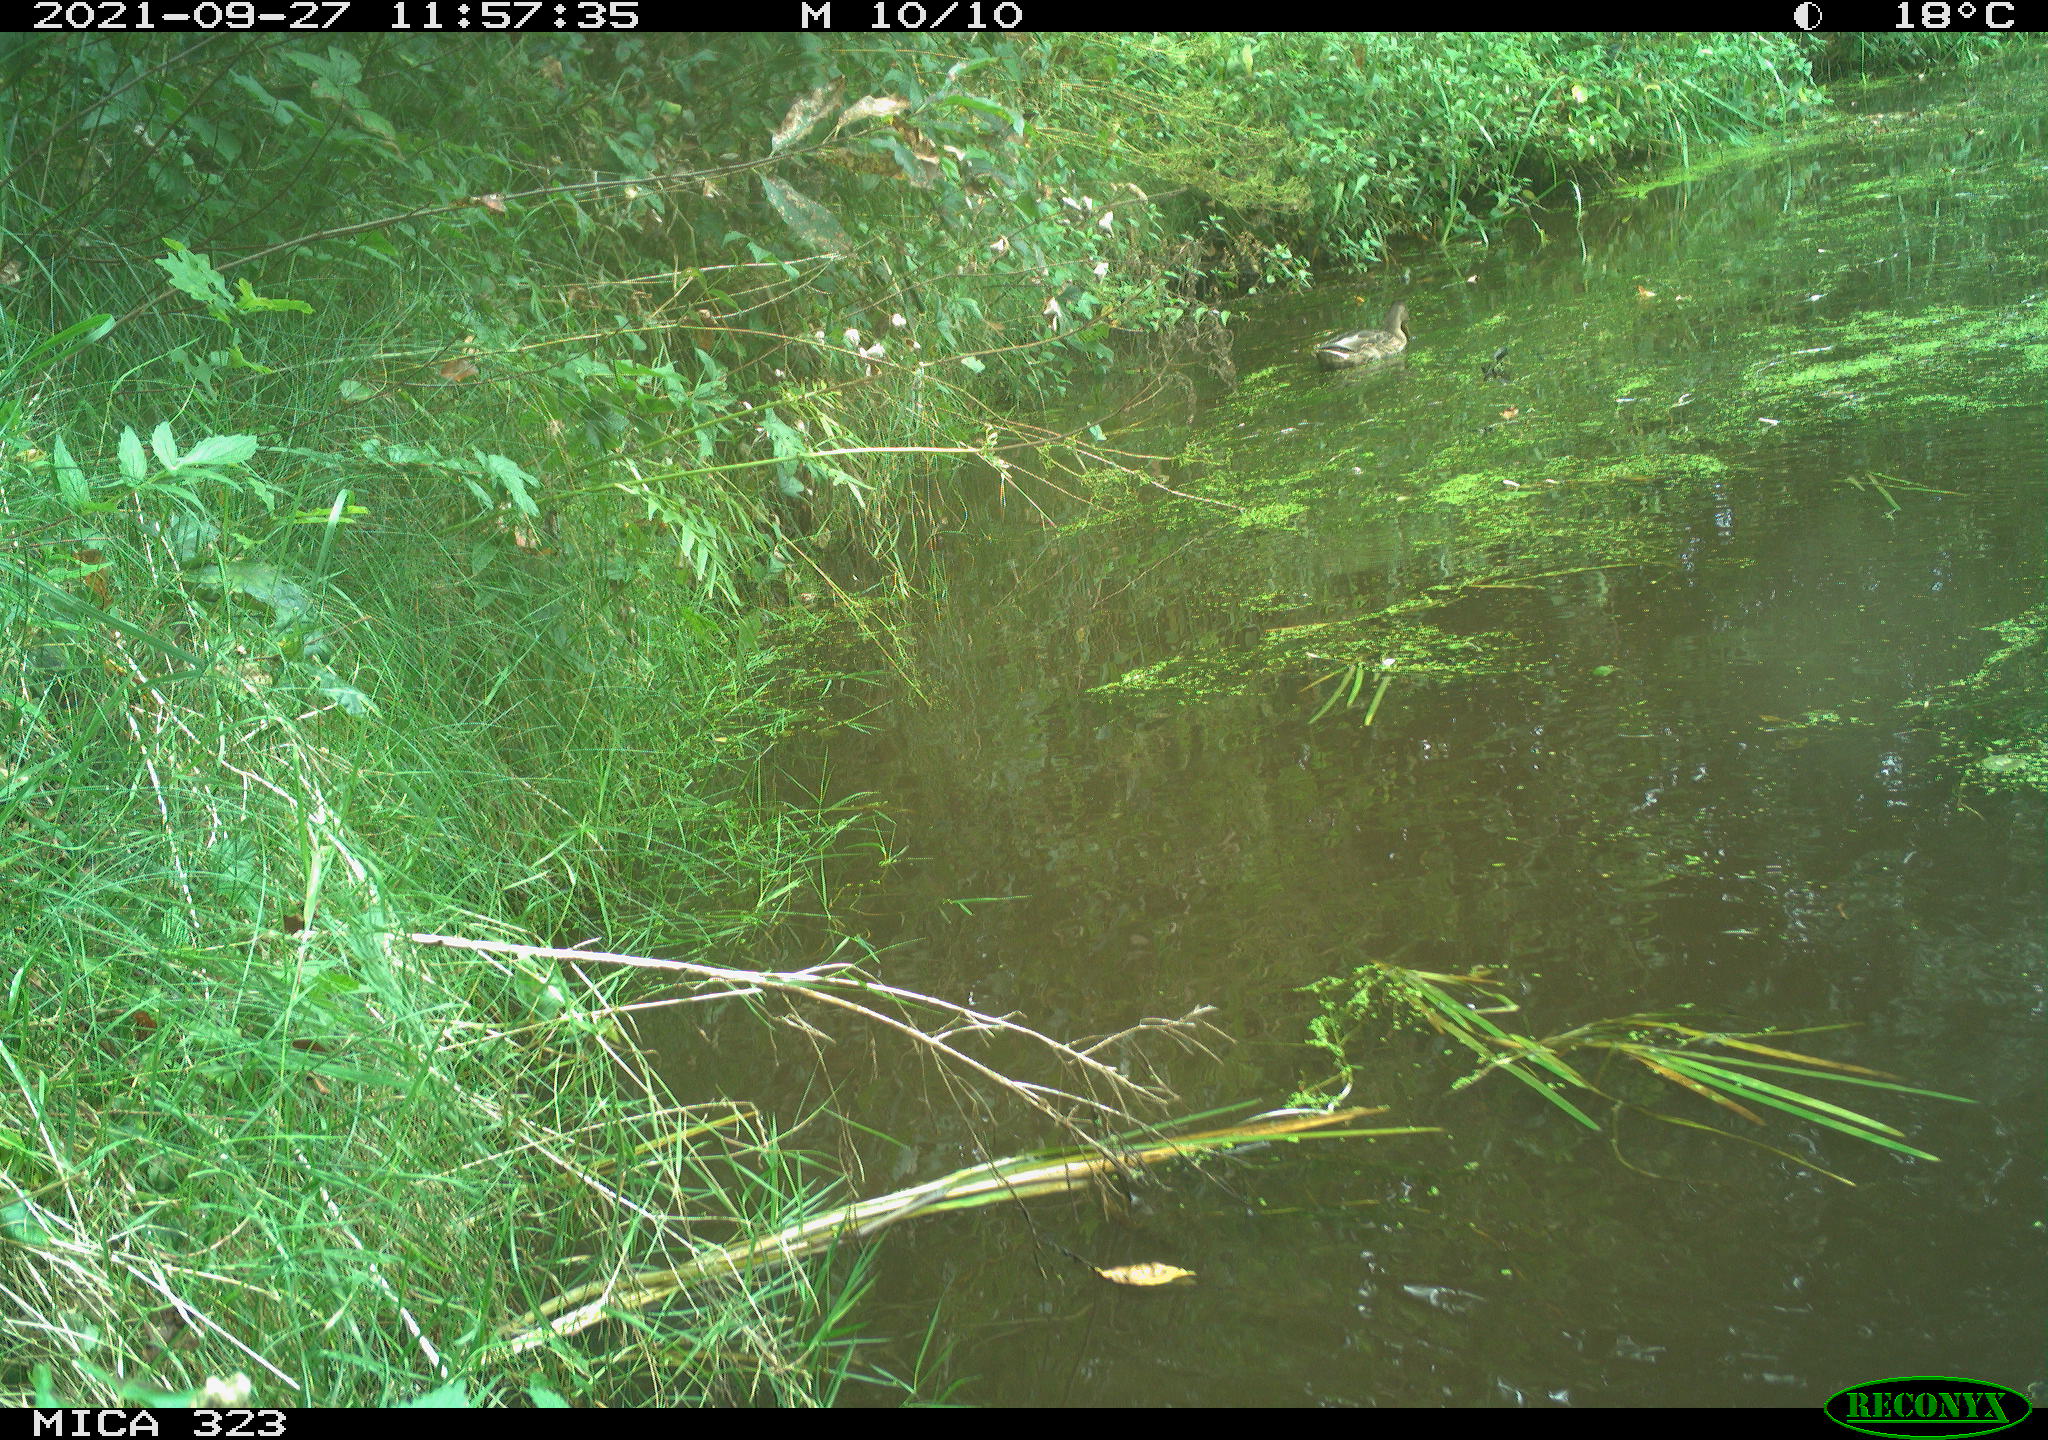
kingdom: Animalia
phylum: Chordata
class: Aves
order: Anseriformes
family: Anatidae
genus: Anas
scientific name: Anas platyrhynchos
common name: Mallard
